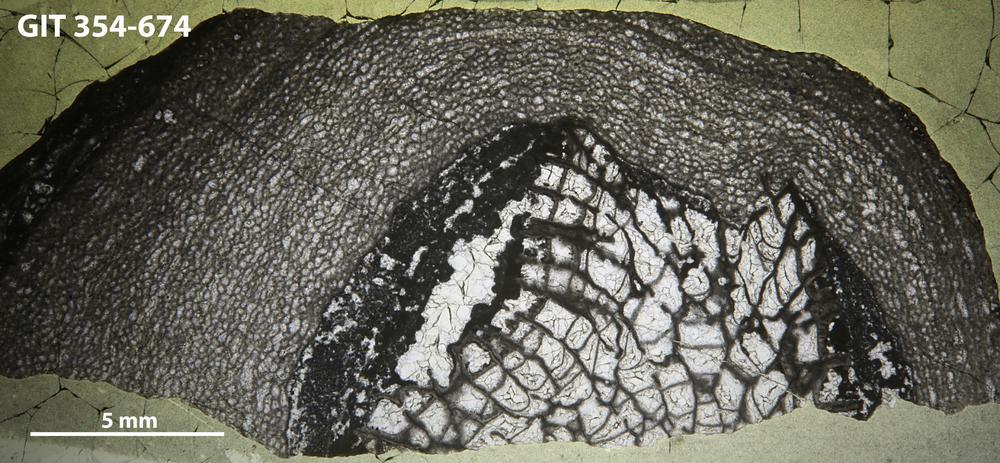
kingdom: Animalia
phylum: Porifera
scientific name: Porifera
